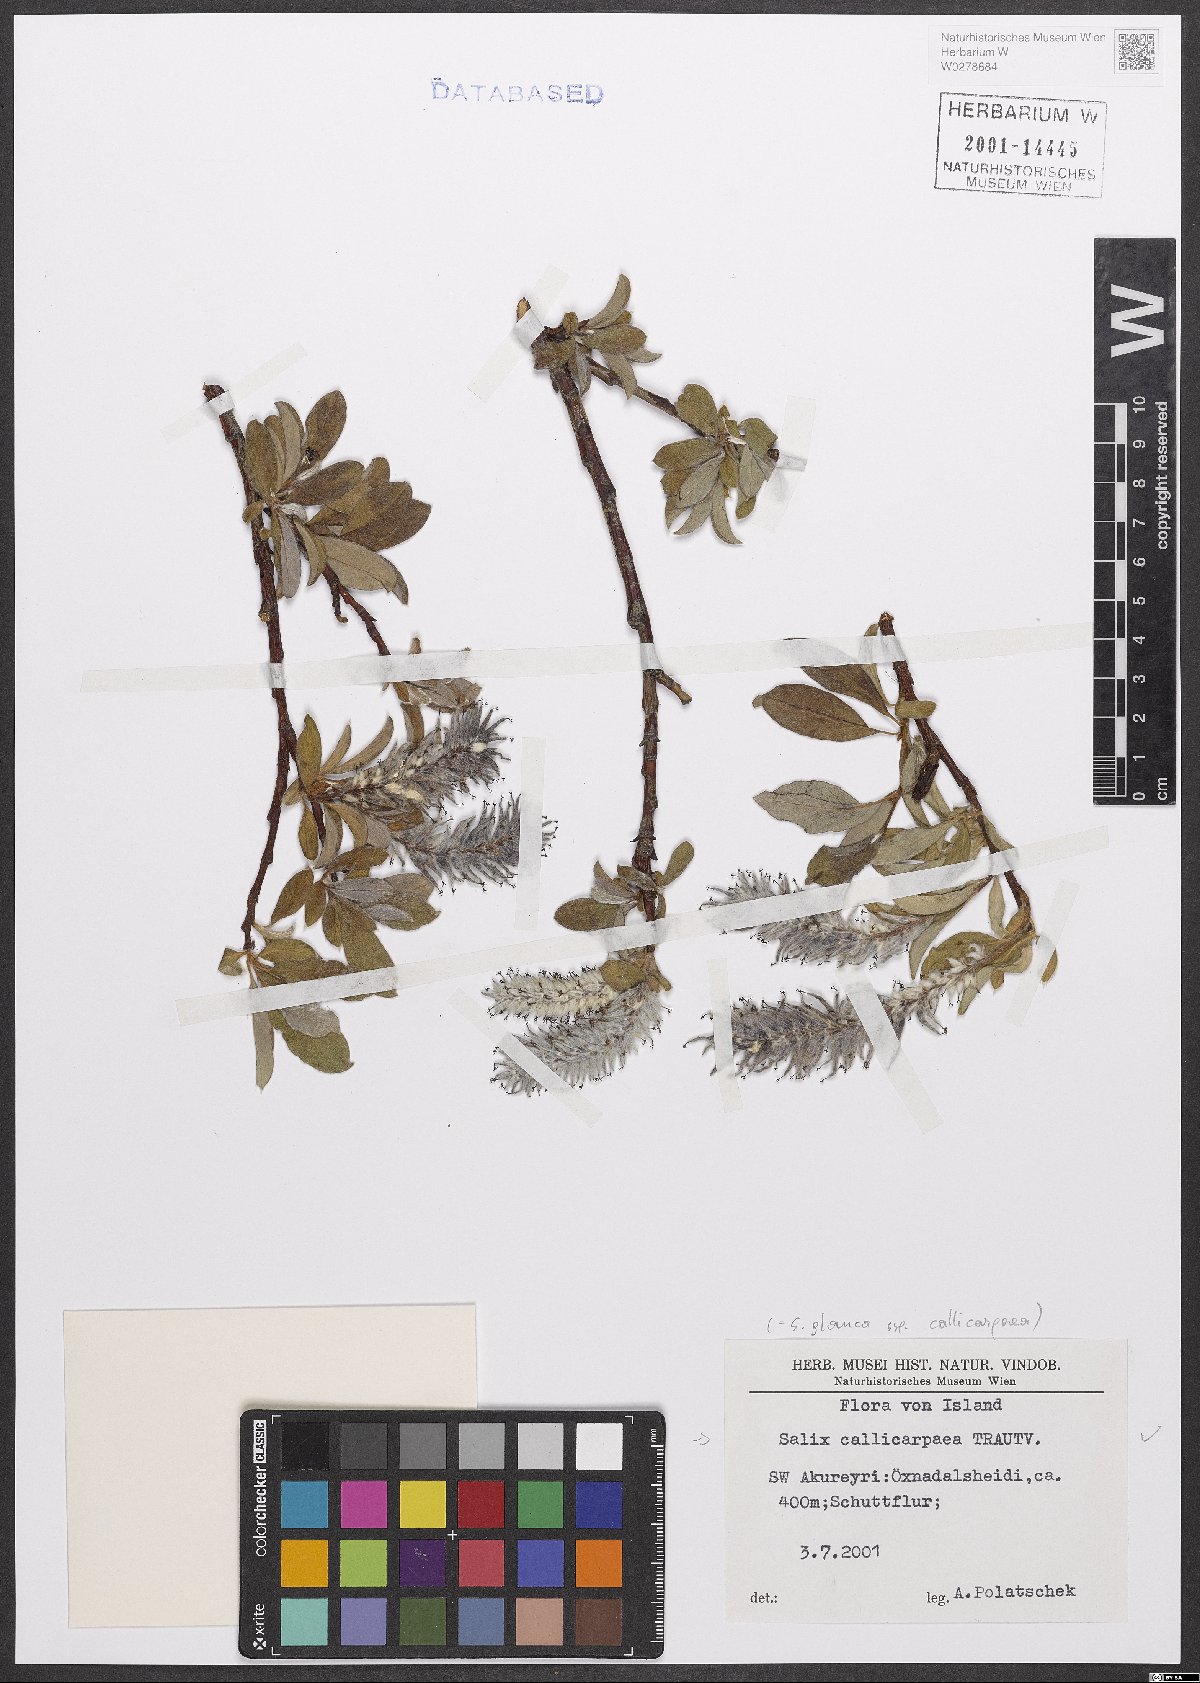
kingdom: Plantae
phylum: Tracheophyta
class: Magnoliopsida
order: Malpighiales
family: Salicaceae
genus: Salix
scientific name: Salix glauca
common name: Glaucous willow
